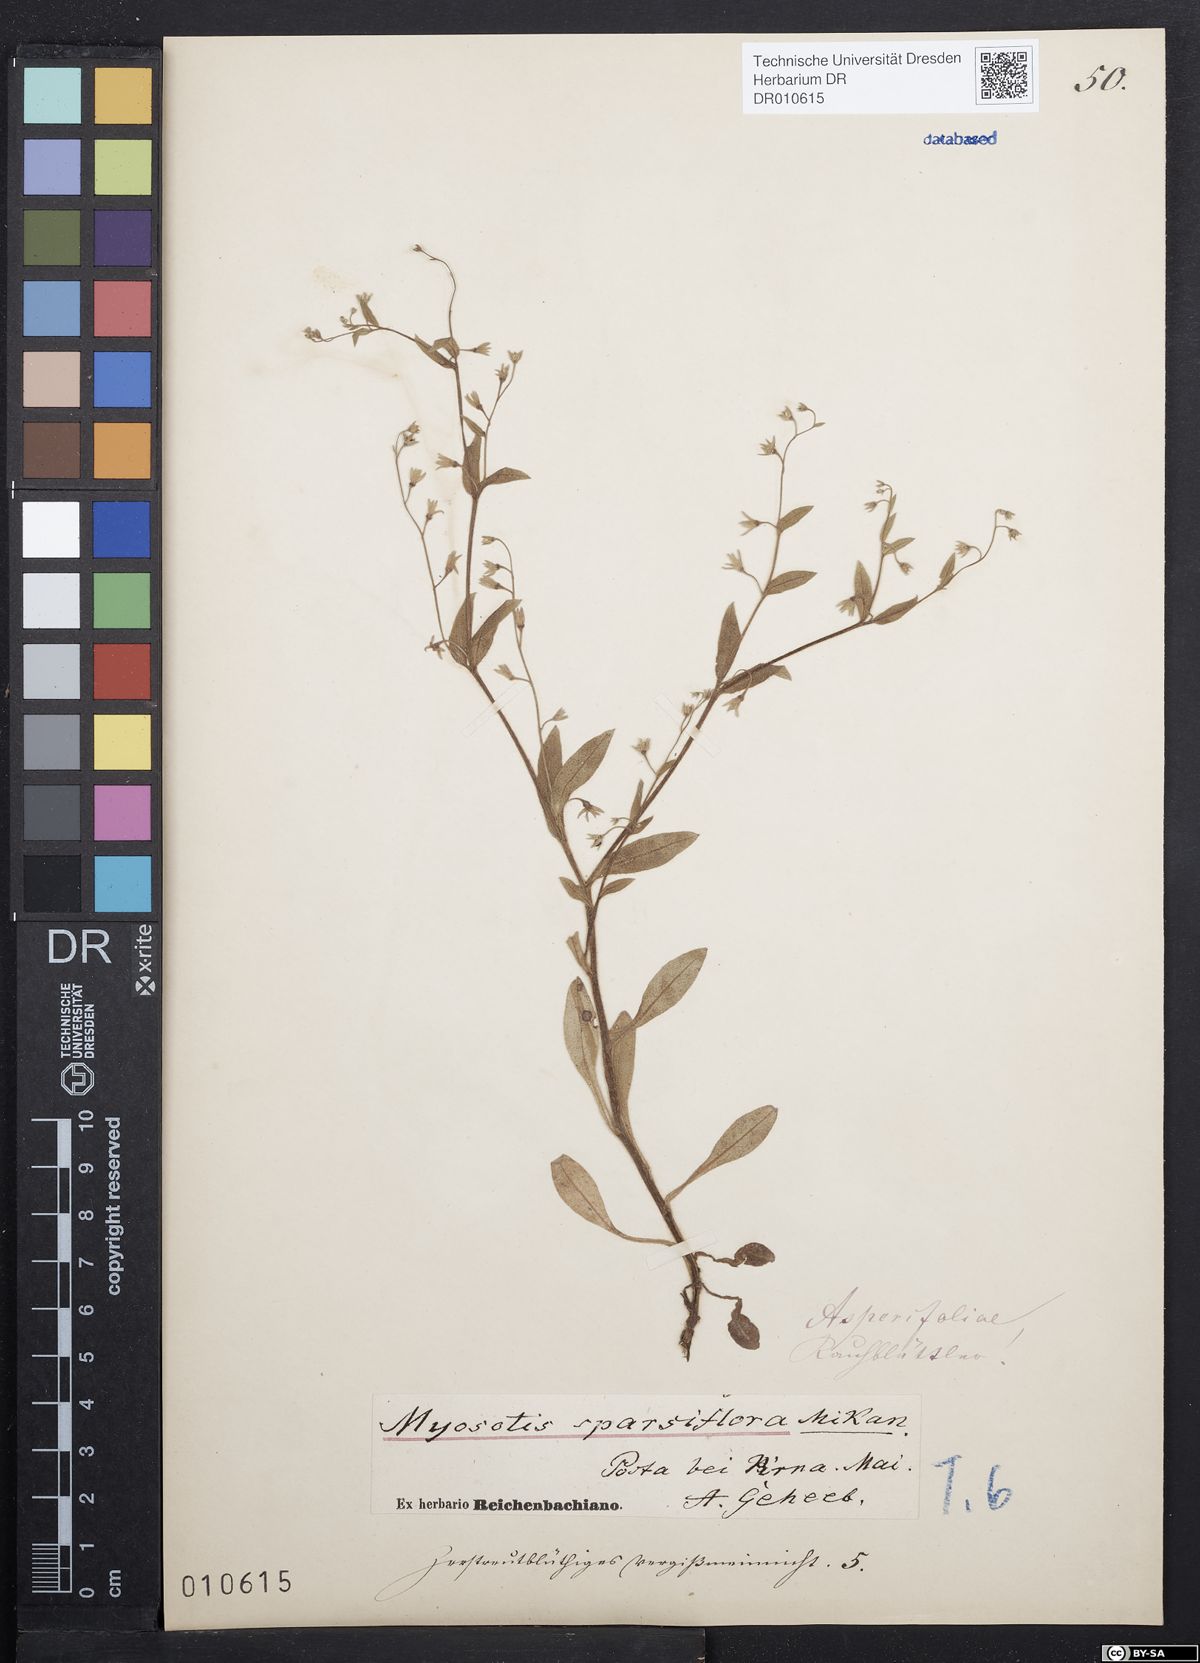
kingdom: Plantae
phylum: Tracheophyta
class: Magnoliopsida
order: Boraginales
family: Boraginaceae
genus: Myosotis
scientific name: Myosotis sparsiflora
